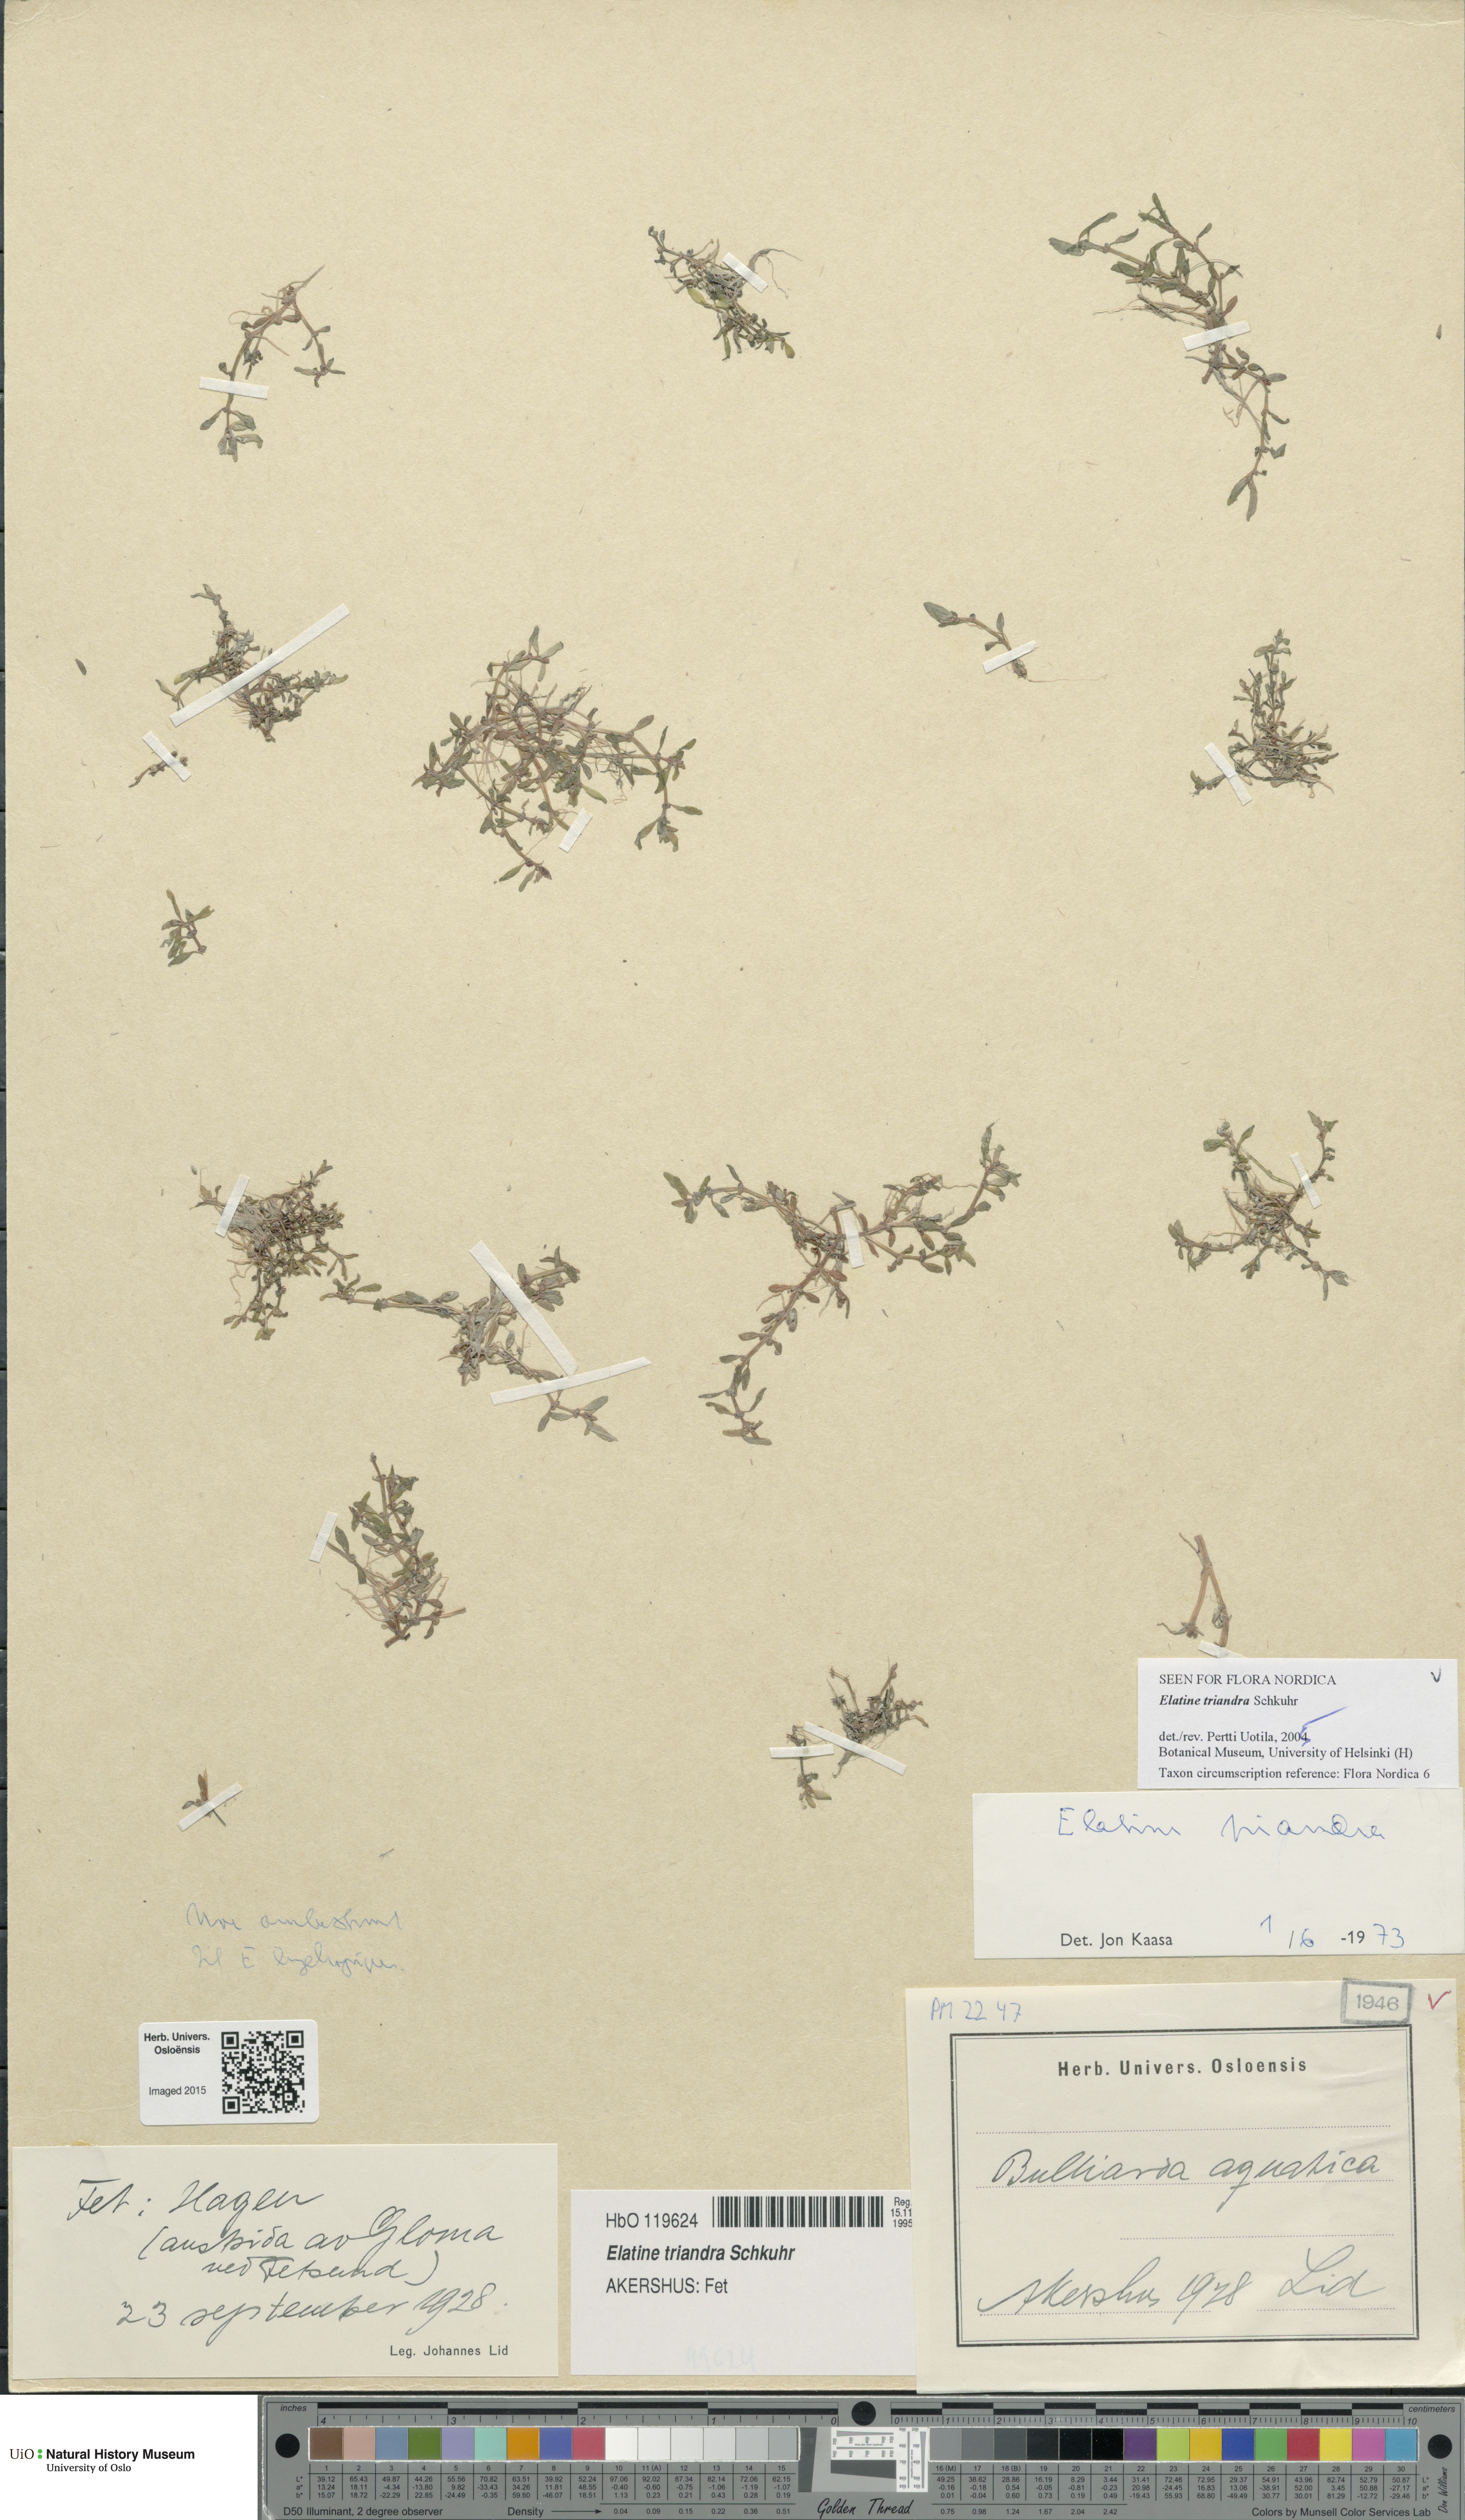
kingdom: Plantae
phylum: Tracheophyta
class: Magnoliopsida
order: Malpighiales
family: Elatinaceae
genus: Elatine
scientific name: Elatine triandra
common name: Three-stamened waterwort
